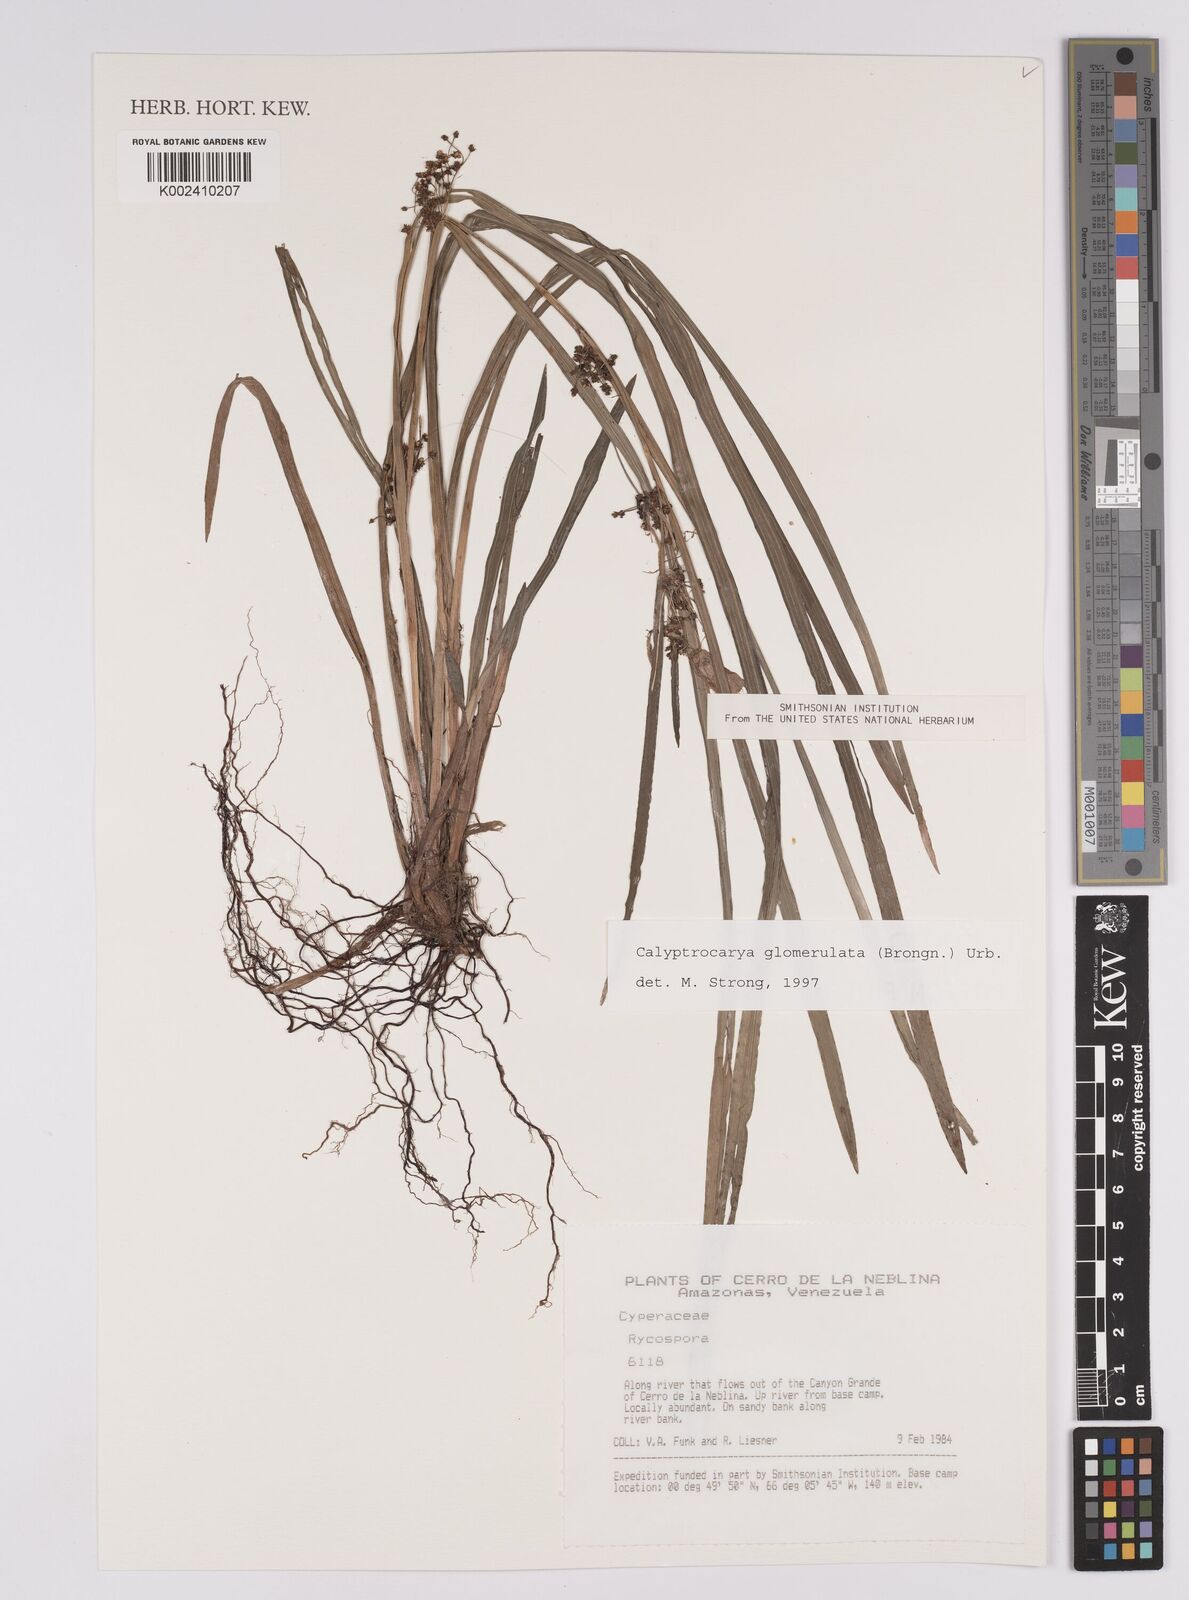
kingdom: Plantae
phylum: Tracheophyta
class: Liliopsida
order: Poales
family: Cyperaceae
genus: Calyptrocarya
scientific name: Calyptrocarya glomerulata
